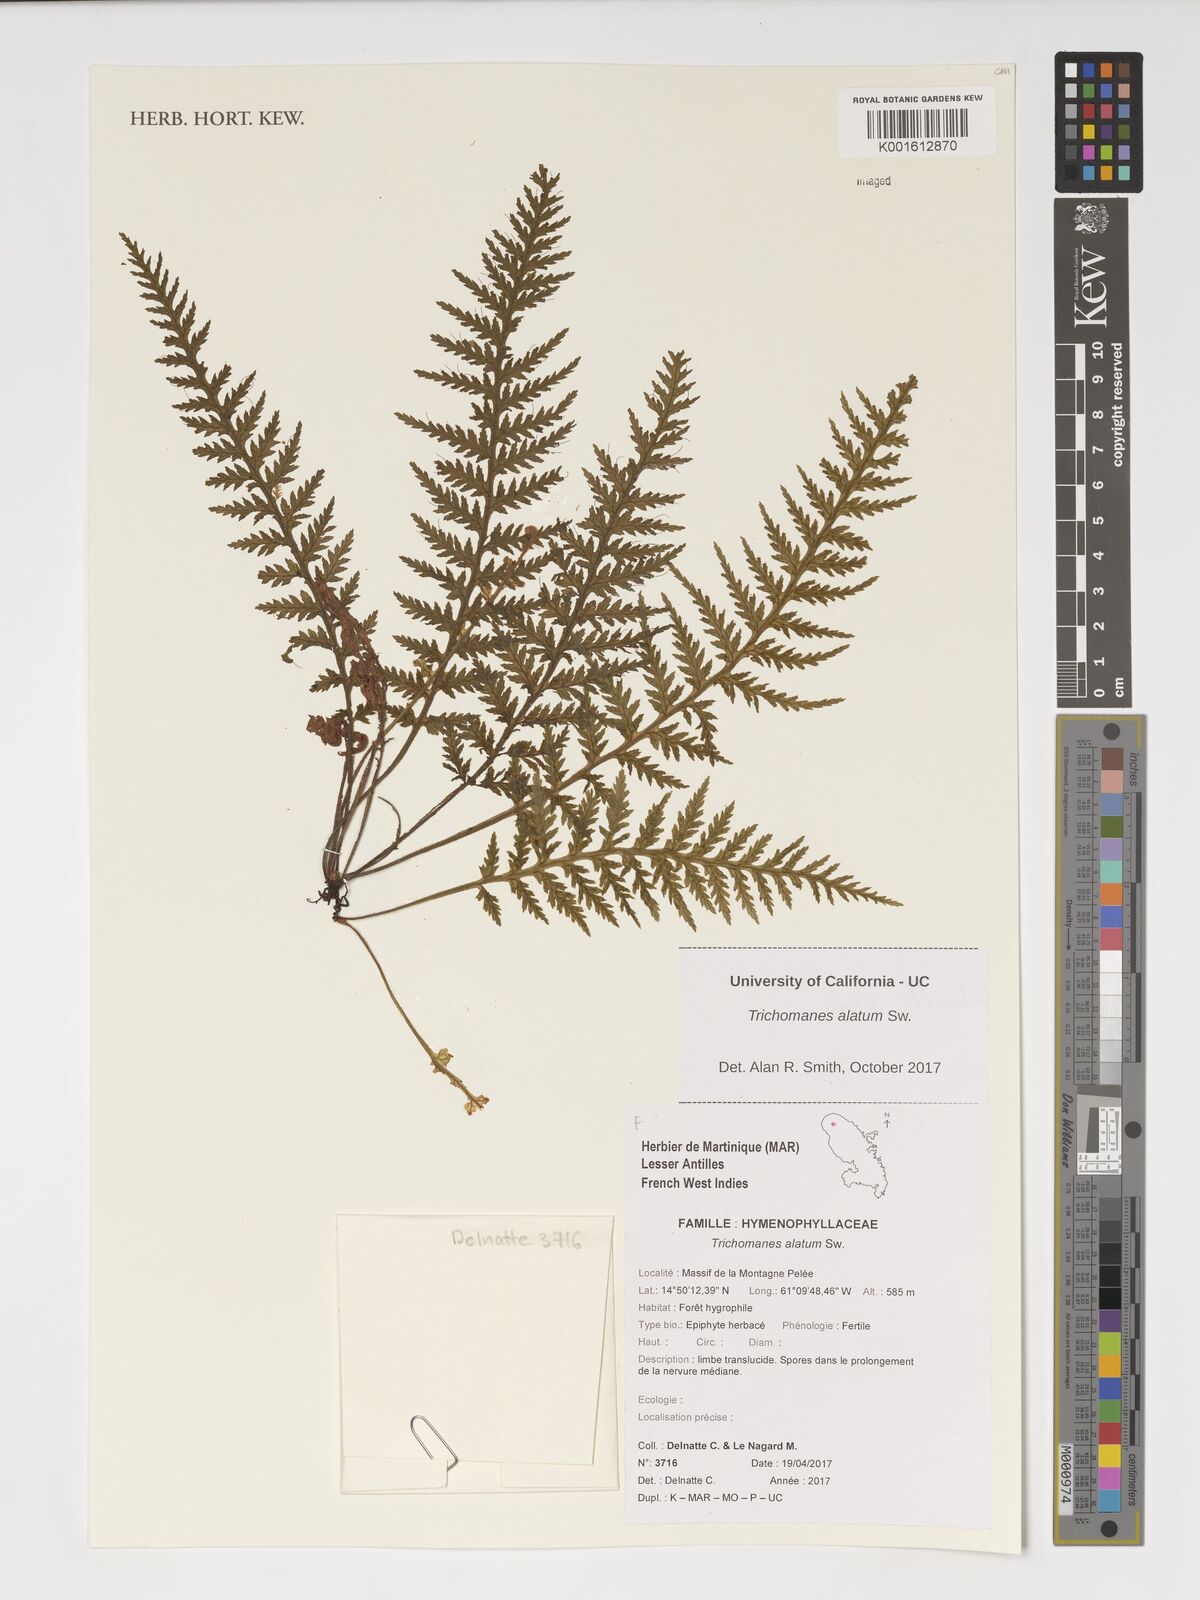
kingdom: Plantae
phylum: Tracheophyta
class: Polypodiopsida
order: Hymenophyllales
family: Hymenophyllaceae
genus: Trichomanes
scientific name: Trichomanes alatum
